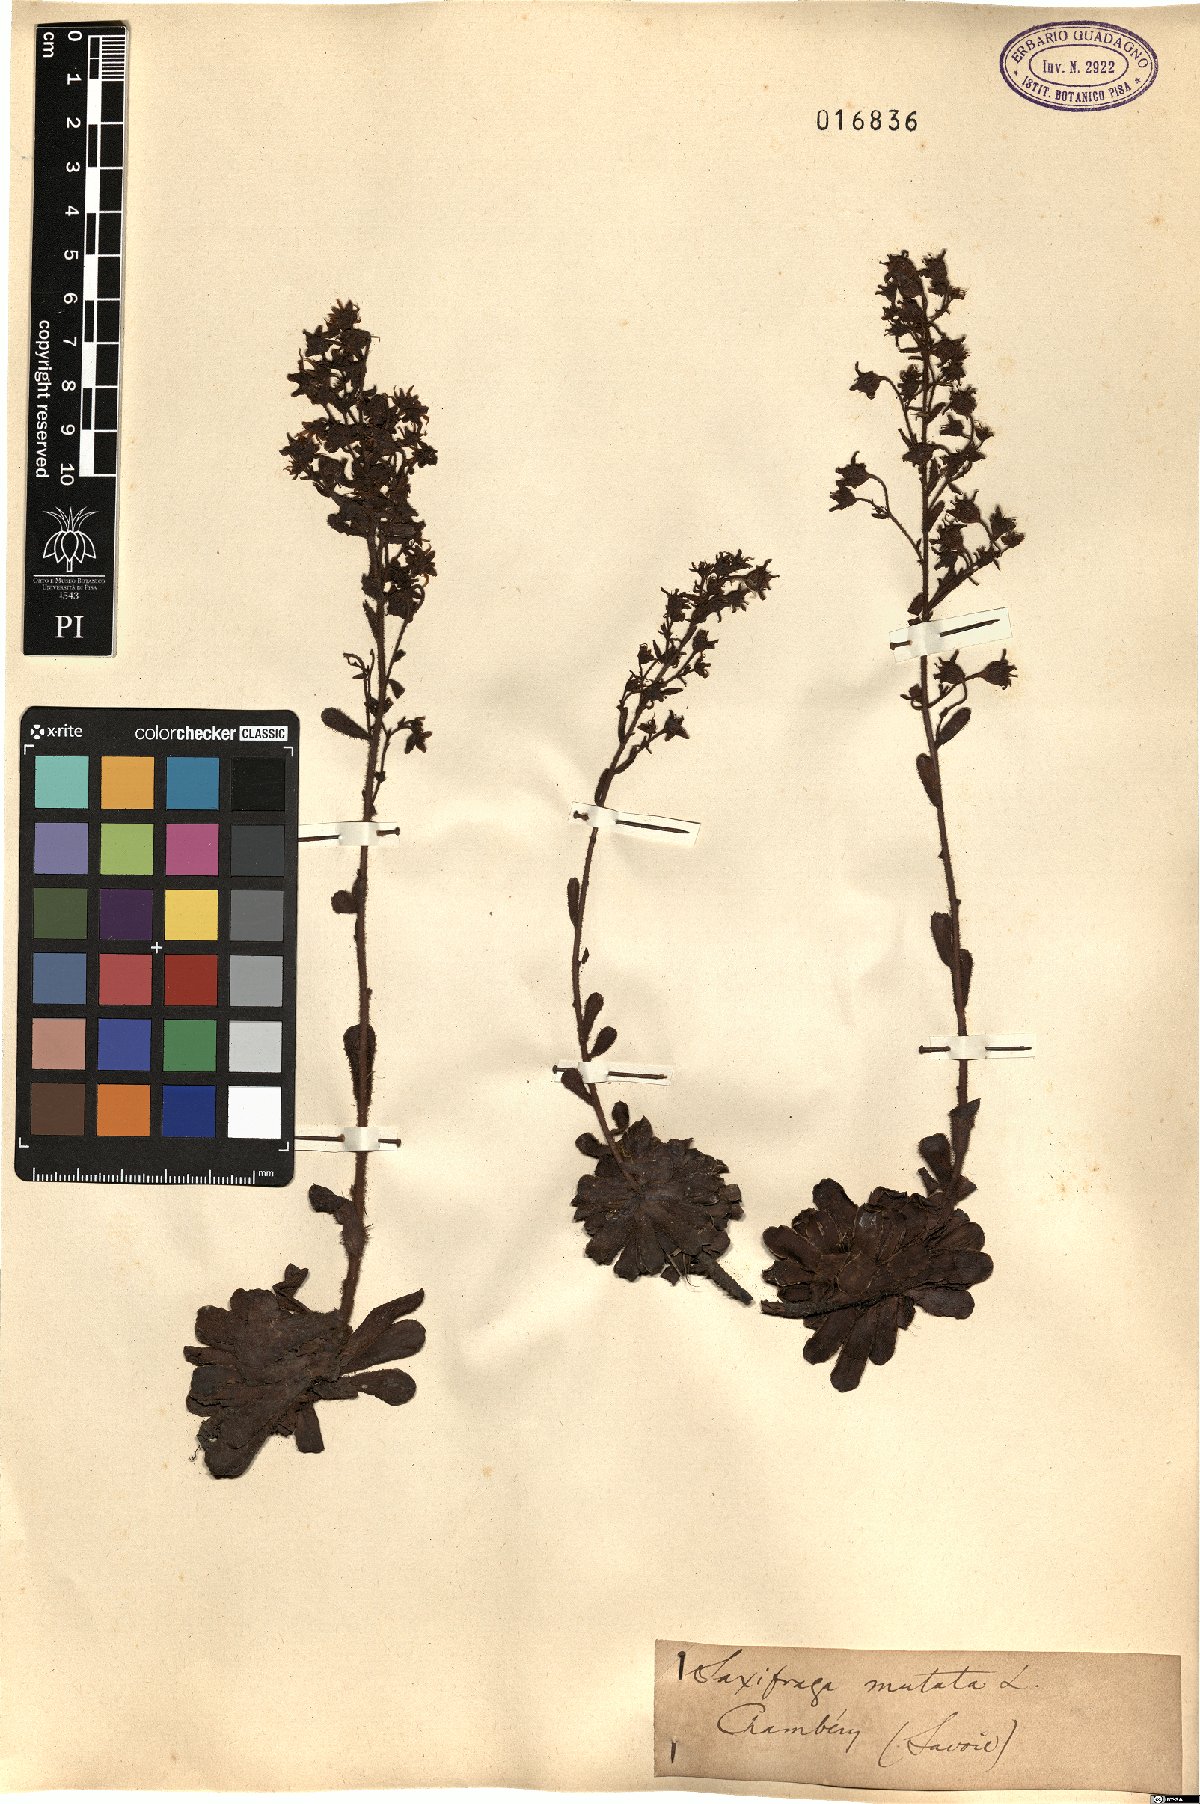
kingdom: Plantae
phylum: Tracheophyta
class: Magnoliopsida
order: Saxifragales
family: Saxifragaceae
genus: Saxifraga
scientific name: Saxifraga mutata
